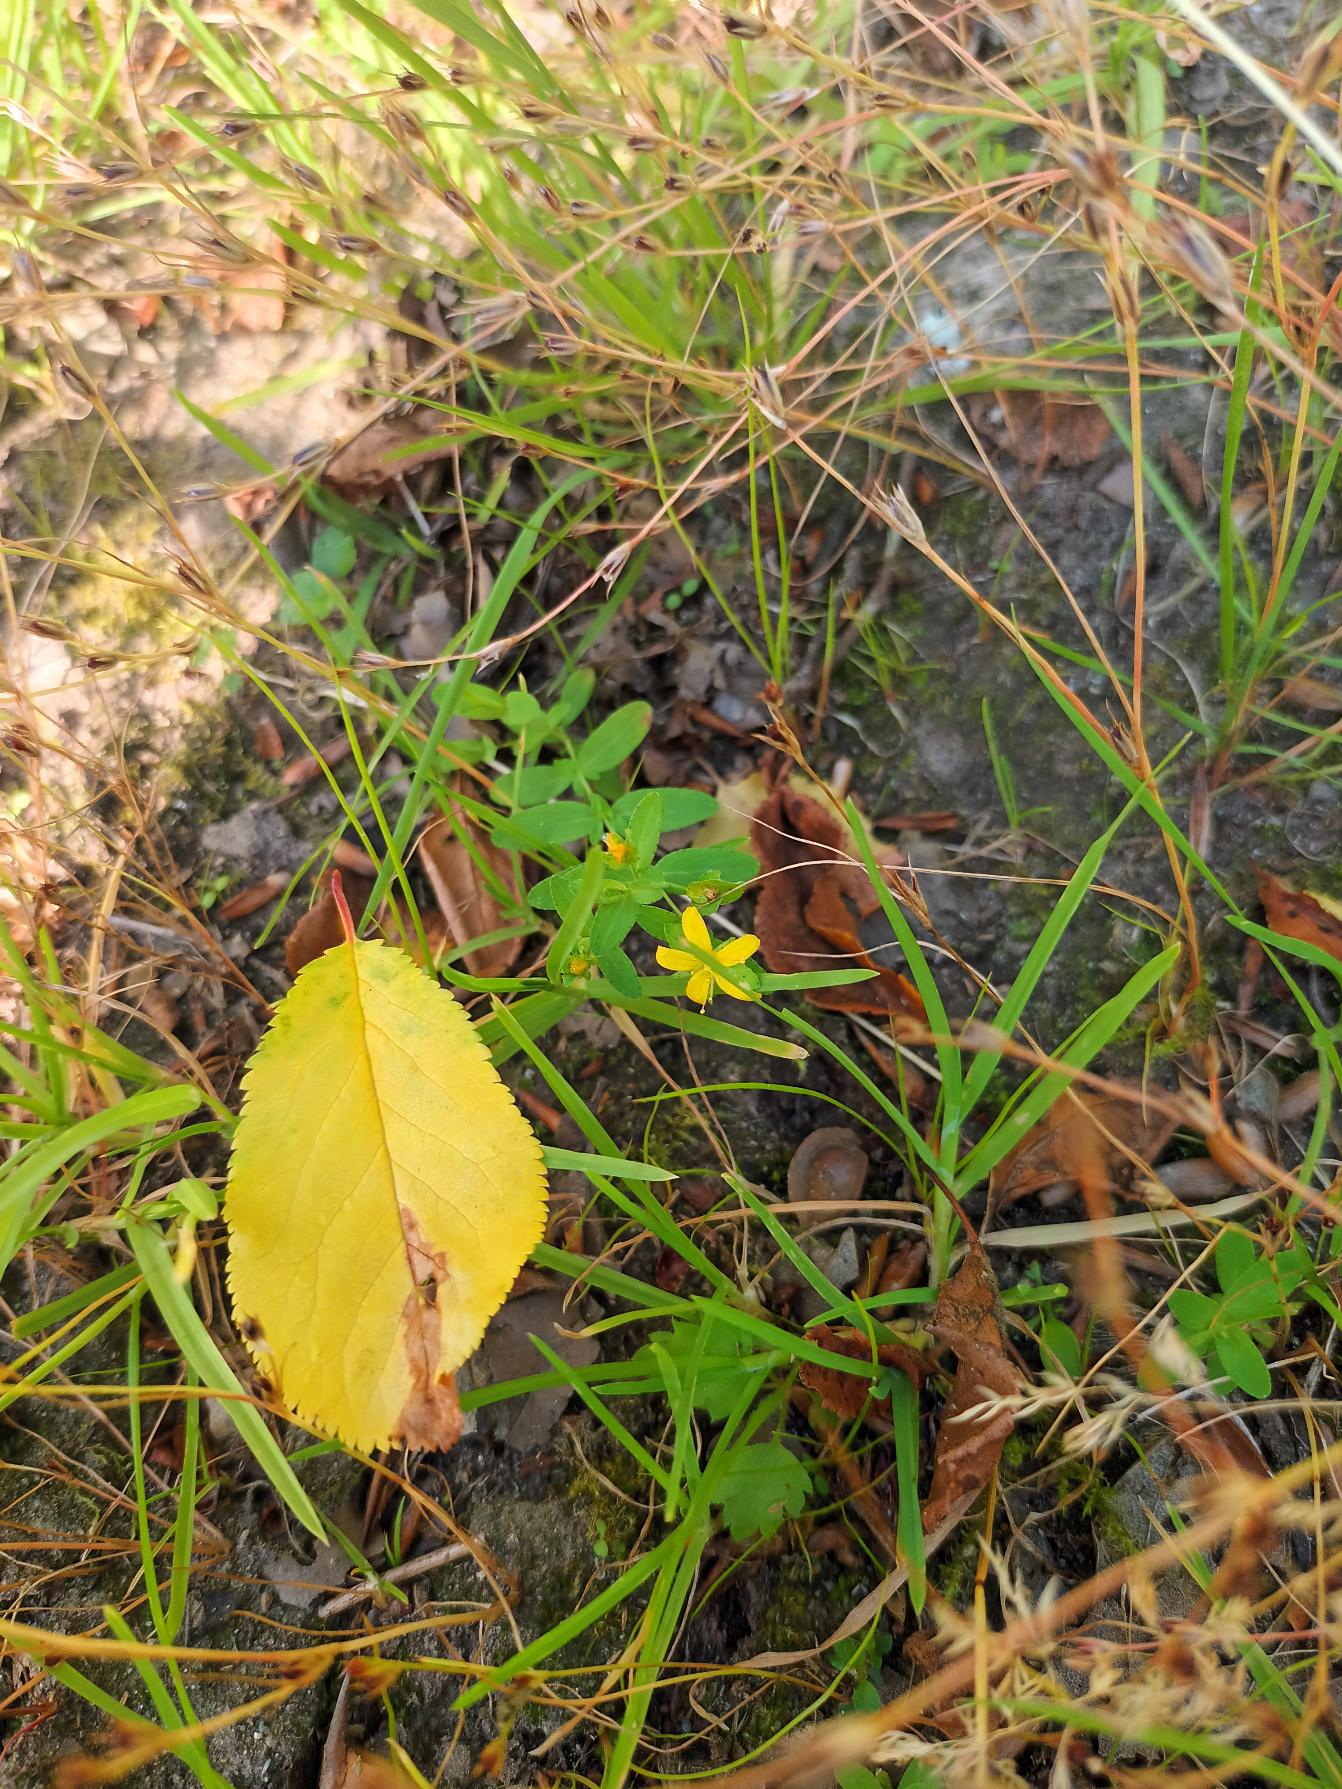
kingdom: Plantae
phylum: Tracheophyta
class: Magnoliopsida
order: Malpighiales
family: Hypericaceae
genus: Hypericum
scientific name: Hypericum humifusum
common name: Dværg-perikon
